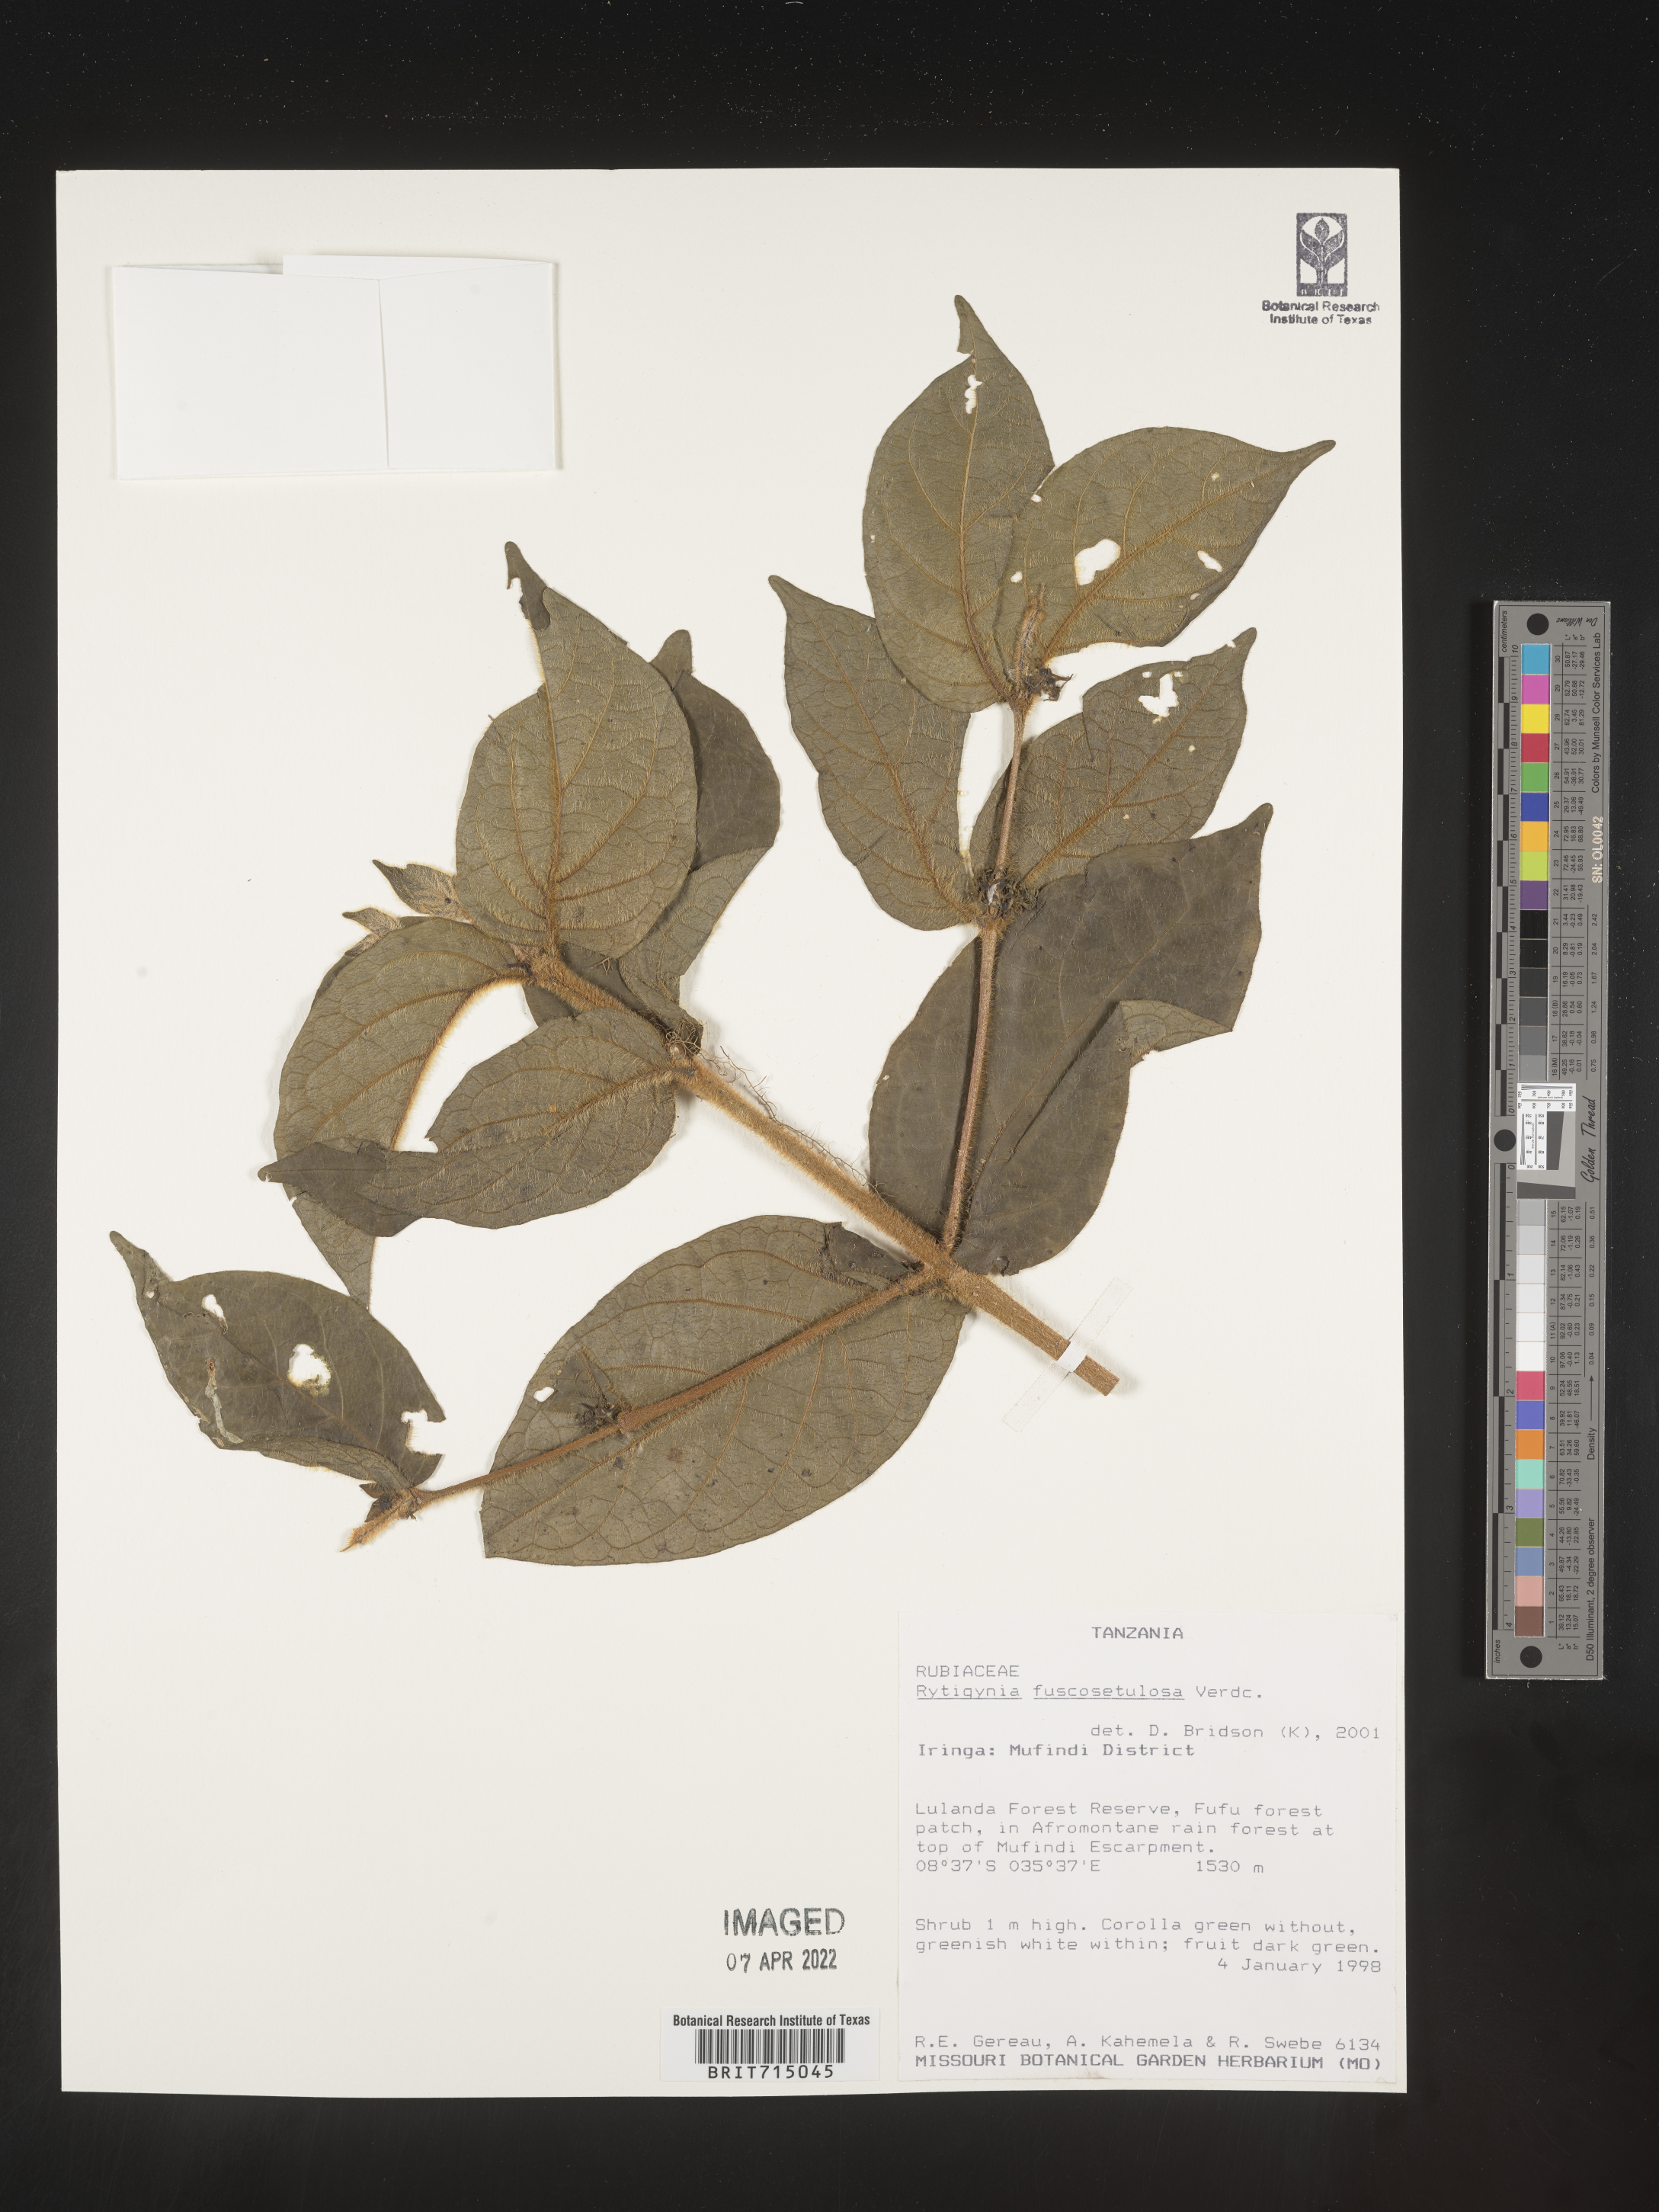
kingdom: Plantae
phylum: Tracheophyta
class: Magnoliopsida
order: Gentianales
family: Rubiaceae
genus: Rytigynia
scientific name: Rytigynia
